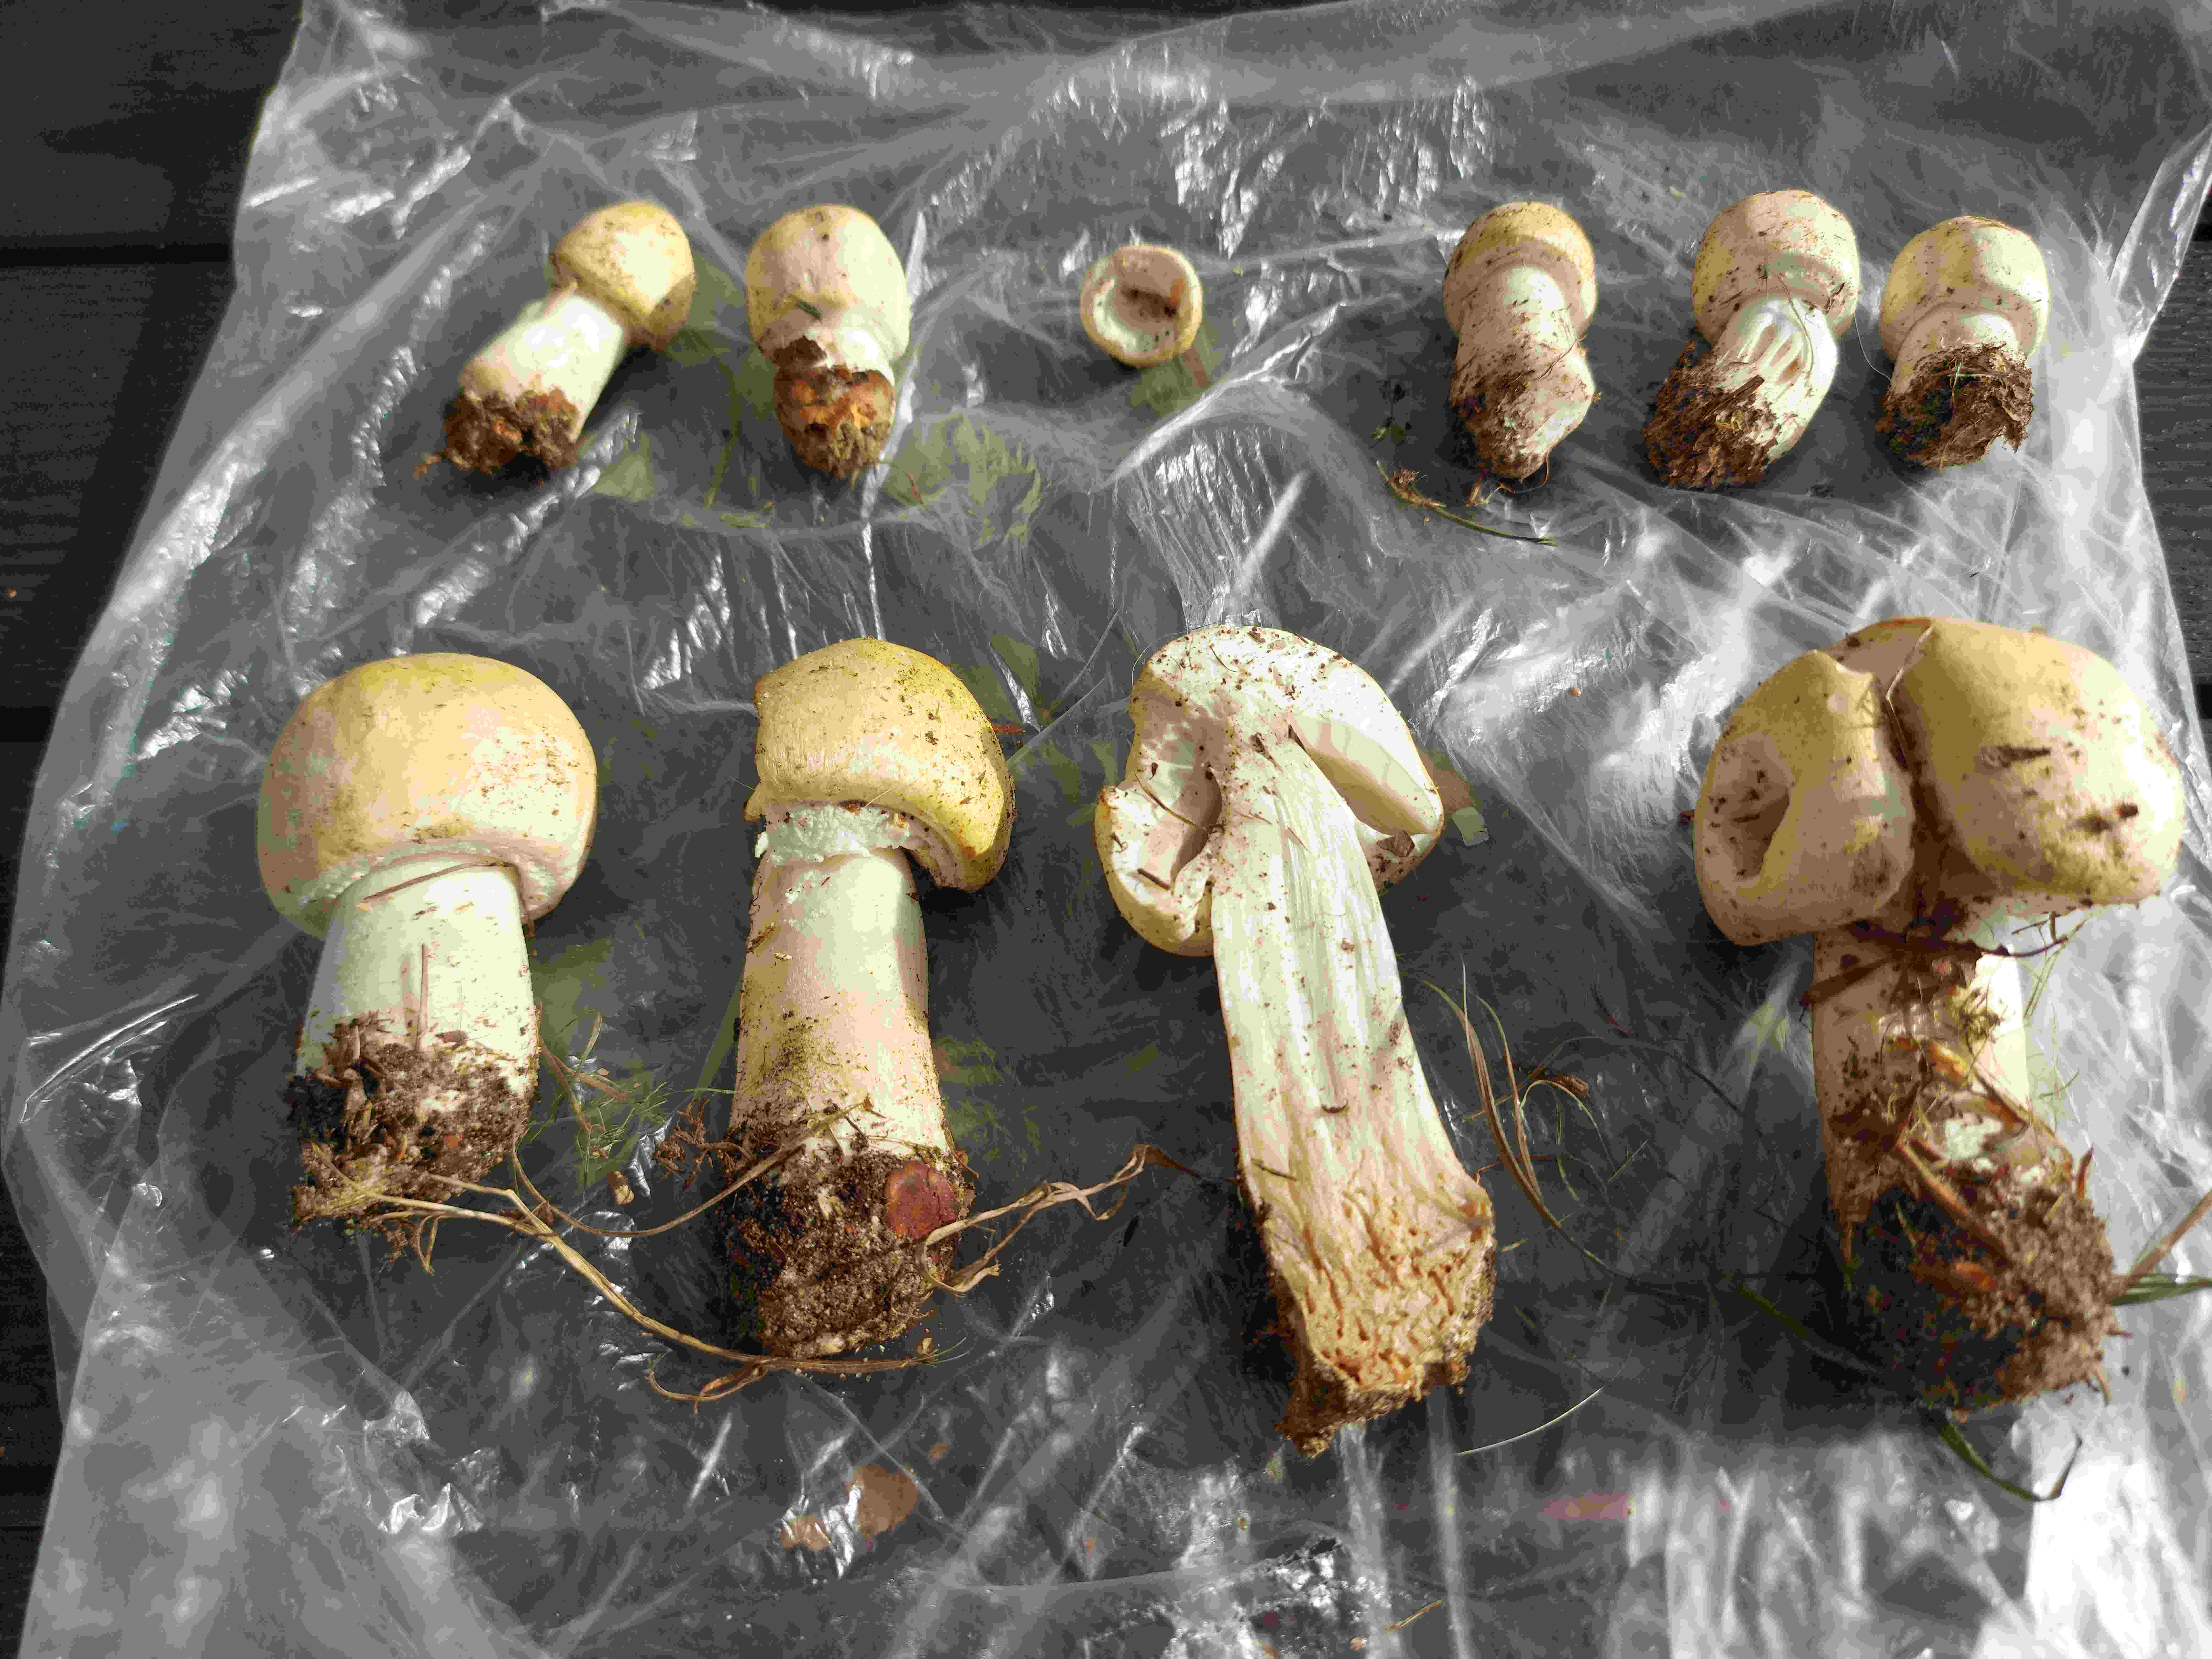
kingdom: Fungi
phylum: Basidiomycota
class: Agaricomycetes
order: Agaricales
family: Agaricaceae
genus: Agaricus
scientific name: Agaricus
